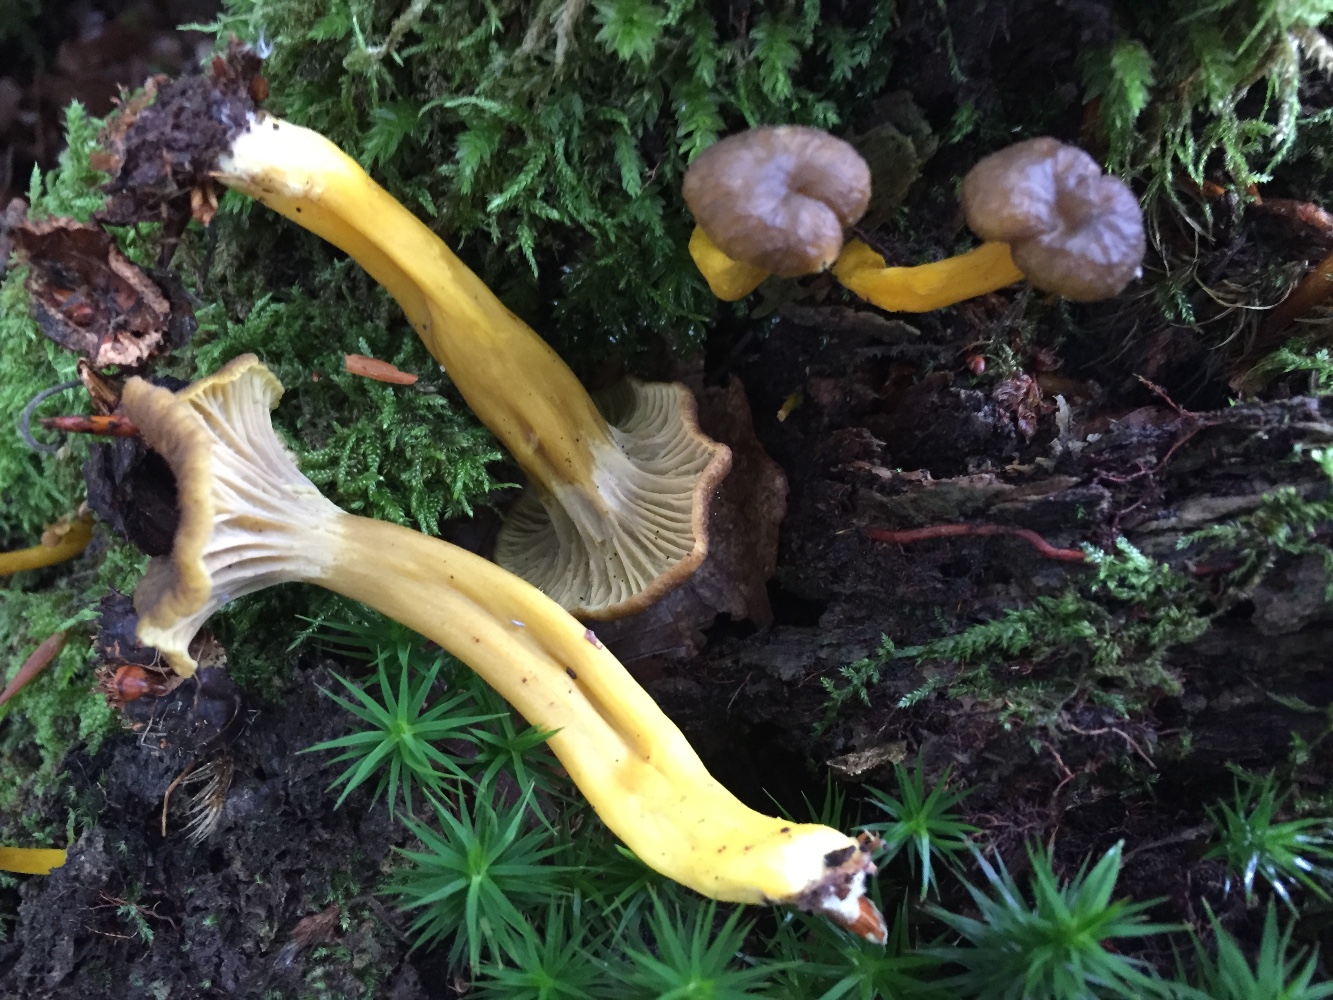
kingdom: Fungi
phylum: Basidiomycota
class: Agaricomycetes
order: Cantharellales
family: Hydnaceae
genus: Craterellus
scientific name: Craterellus tubaeformis
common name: tragt-kantarel
